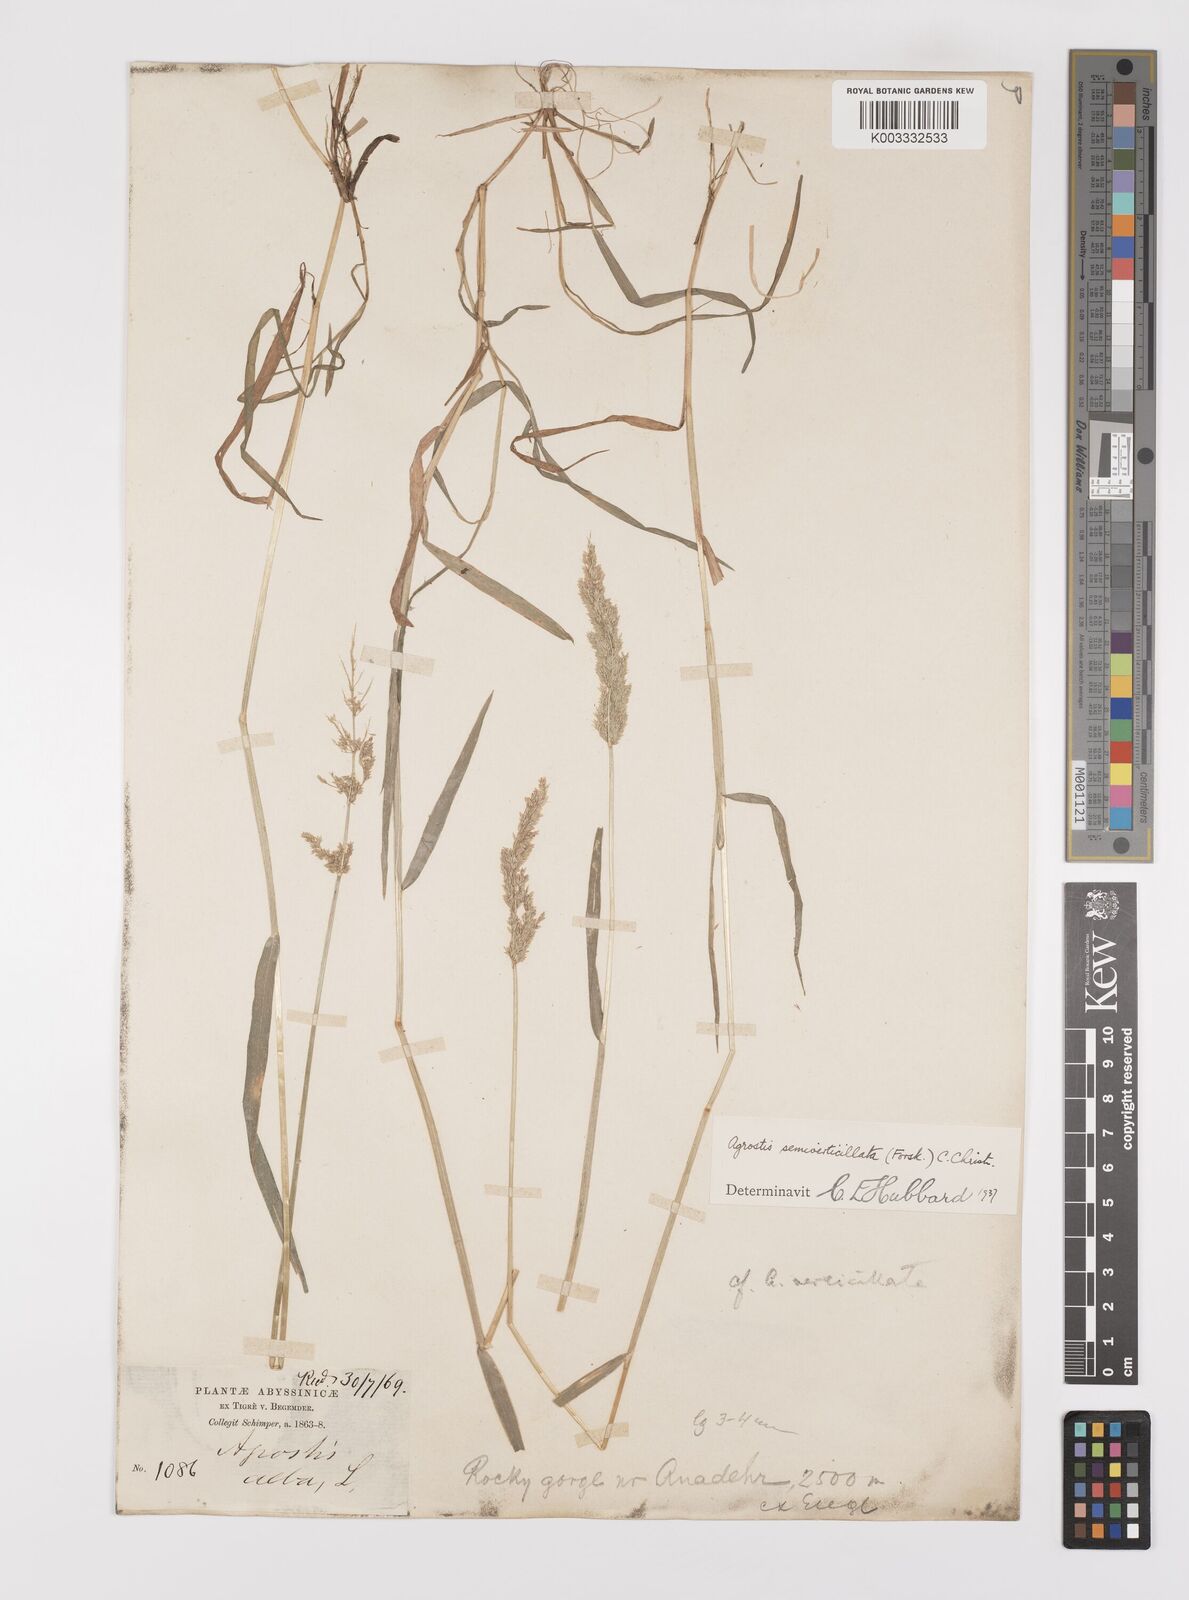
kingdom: Plantae
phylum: Tracheophyta
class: Liliopsida
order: Poales
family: Poaceae
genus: Polypogon
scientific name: Polypogon viridis
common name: Water bent
